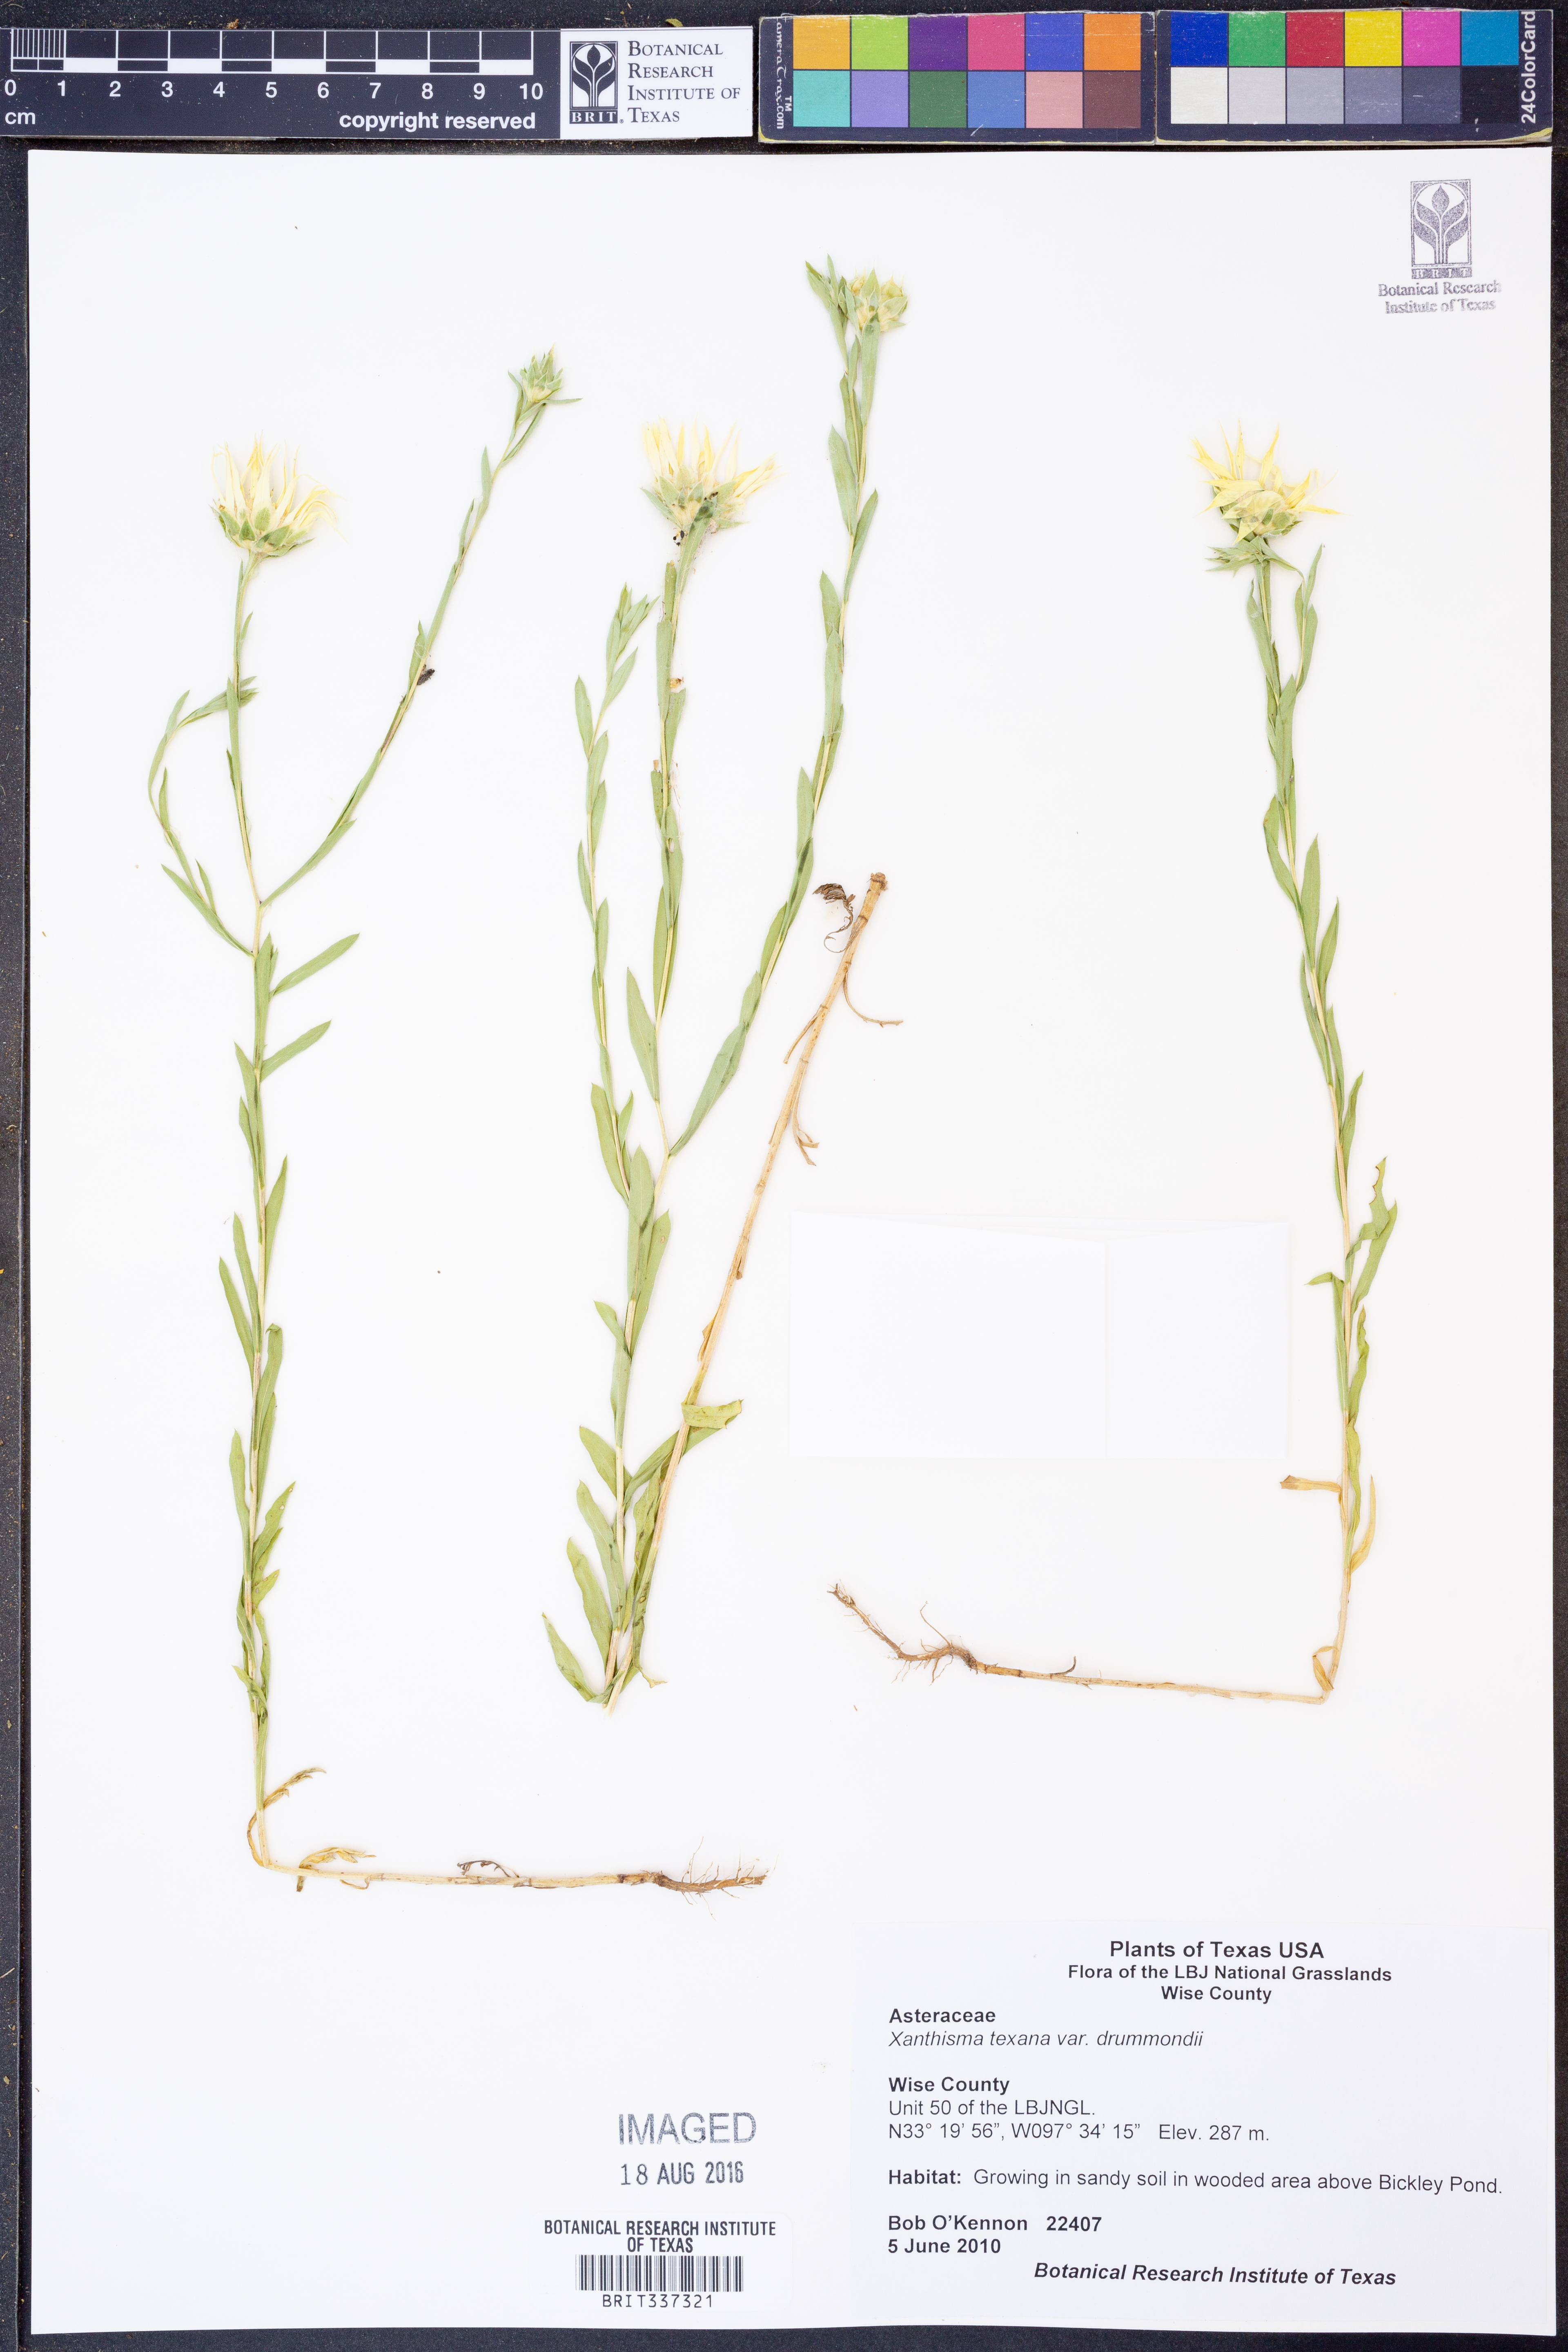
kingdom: Plantae
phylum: Tracheophyta
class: Magnoliopsida
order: Asterales
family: Asteraceae
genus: Xanthisma
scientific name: Xanthisma texanum
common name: Texas sleepy daisy
